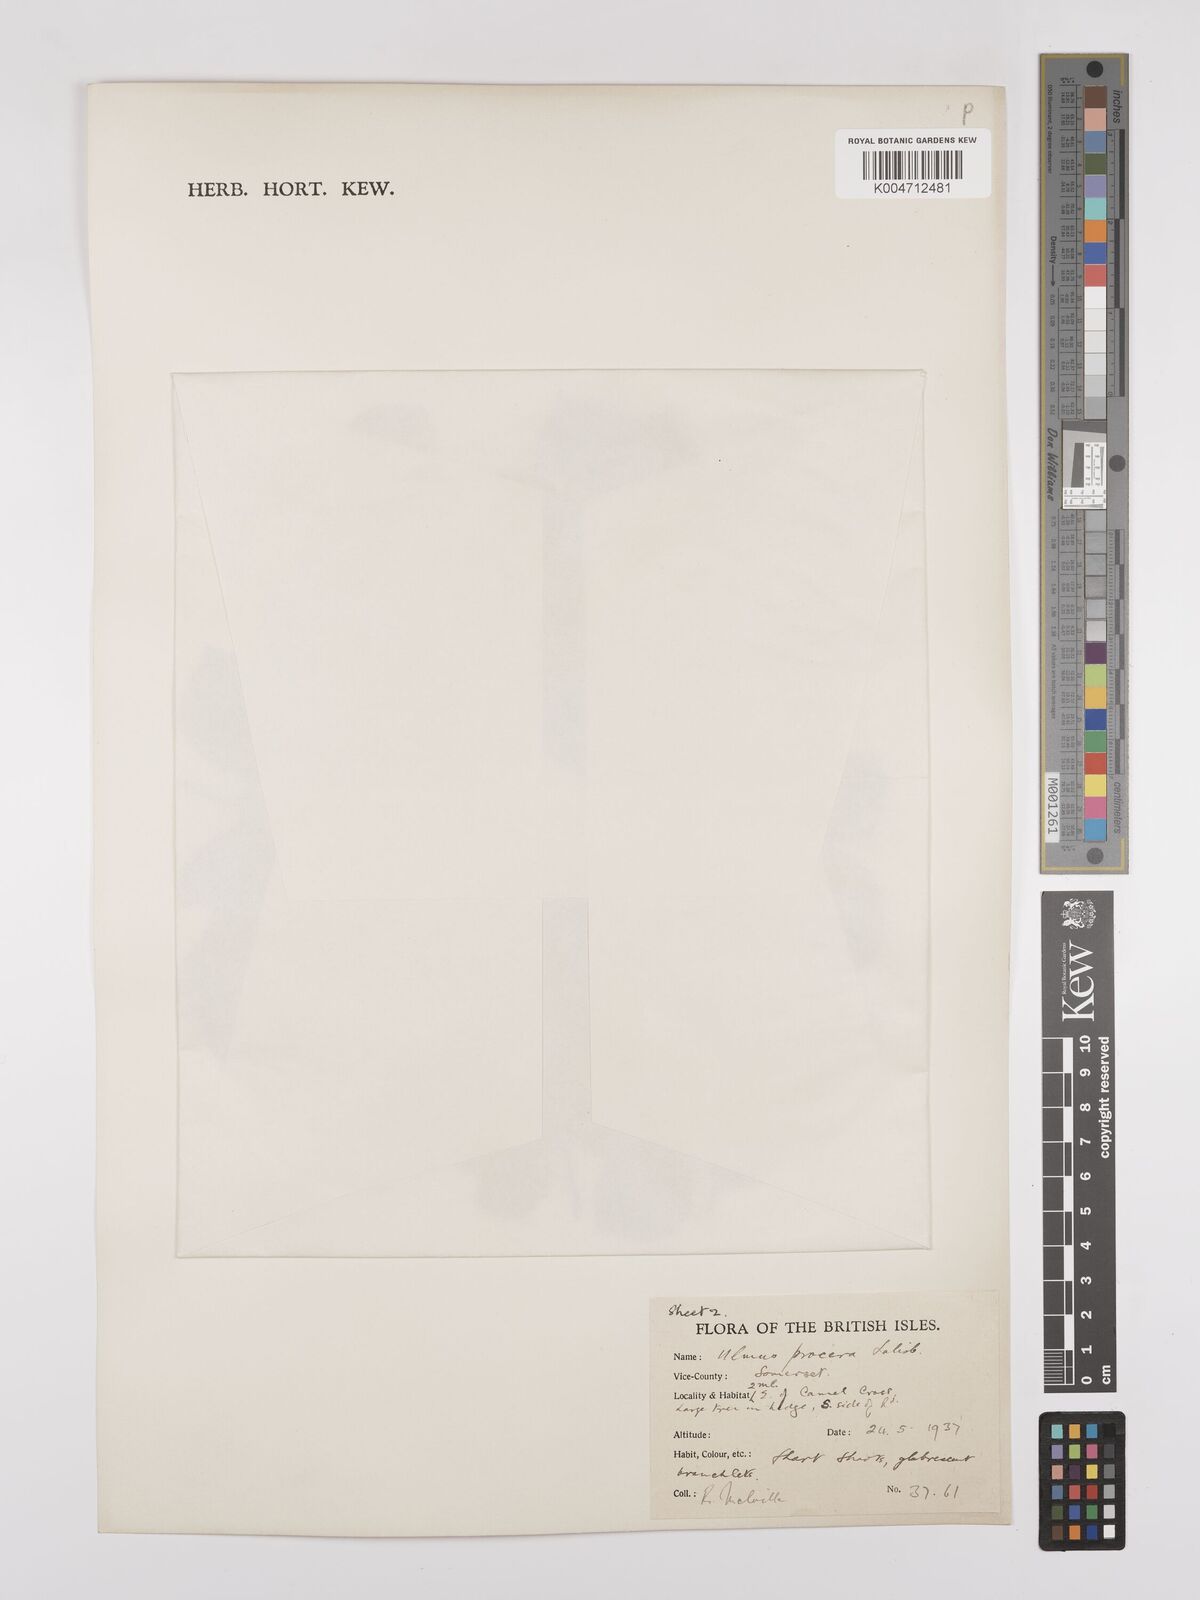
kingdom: Plantae
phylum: Tracheophyta
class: Magnoliopsida
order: Rosales
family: Ulmaceae
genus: Ulmus
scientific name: Ulmus minor
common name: Small-leaved elm
